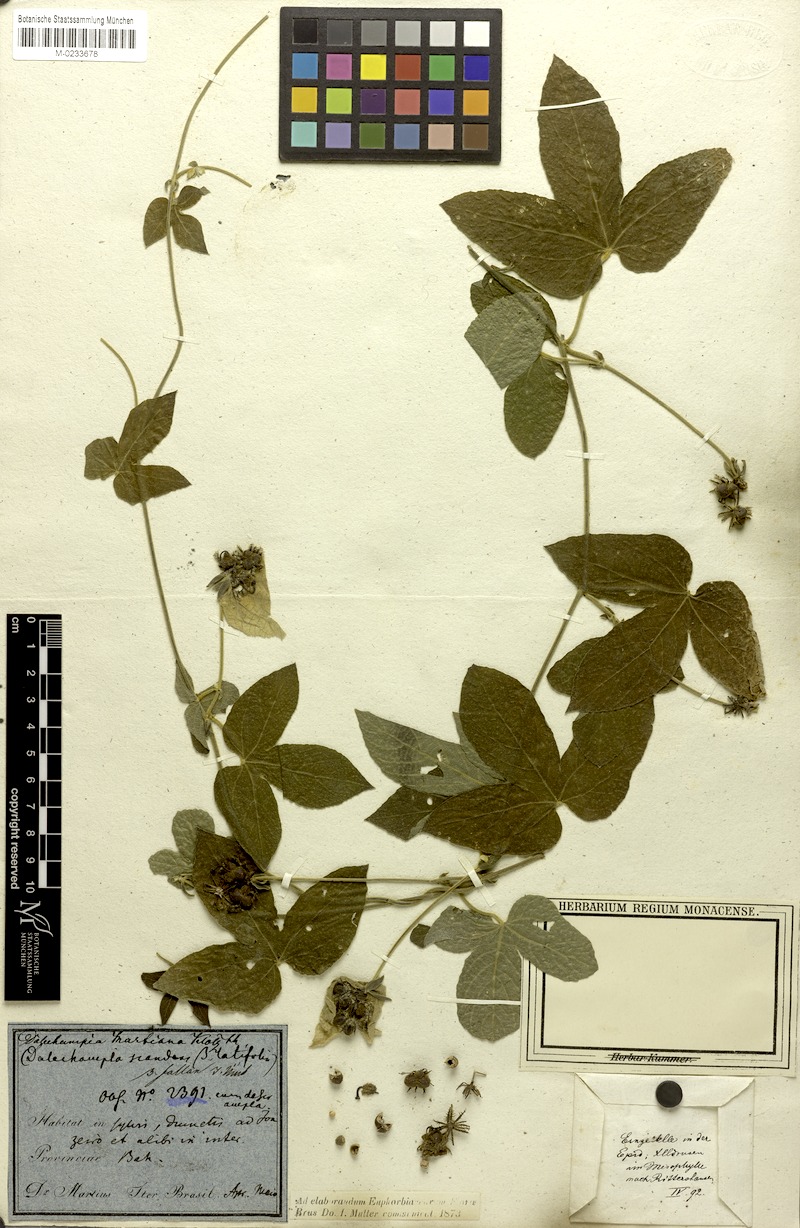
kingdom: Plantae
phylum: Tracheophyta
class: Magnoliopsida
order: Malpighiales
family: Euphorbiaceae
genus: Dalechampia
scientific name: Dalechampia scandens
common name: Spurgecreeper
